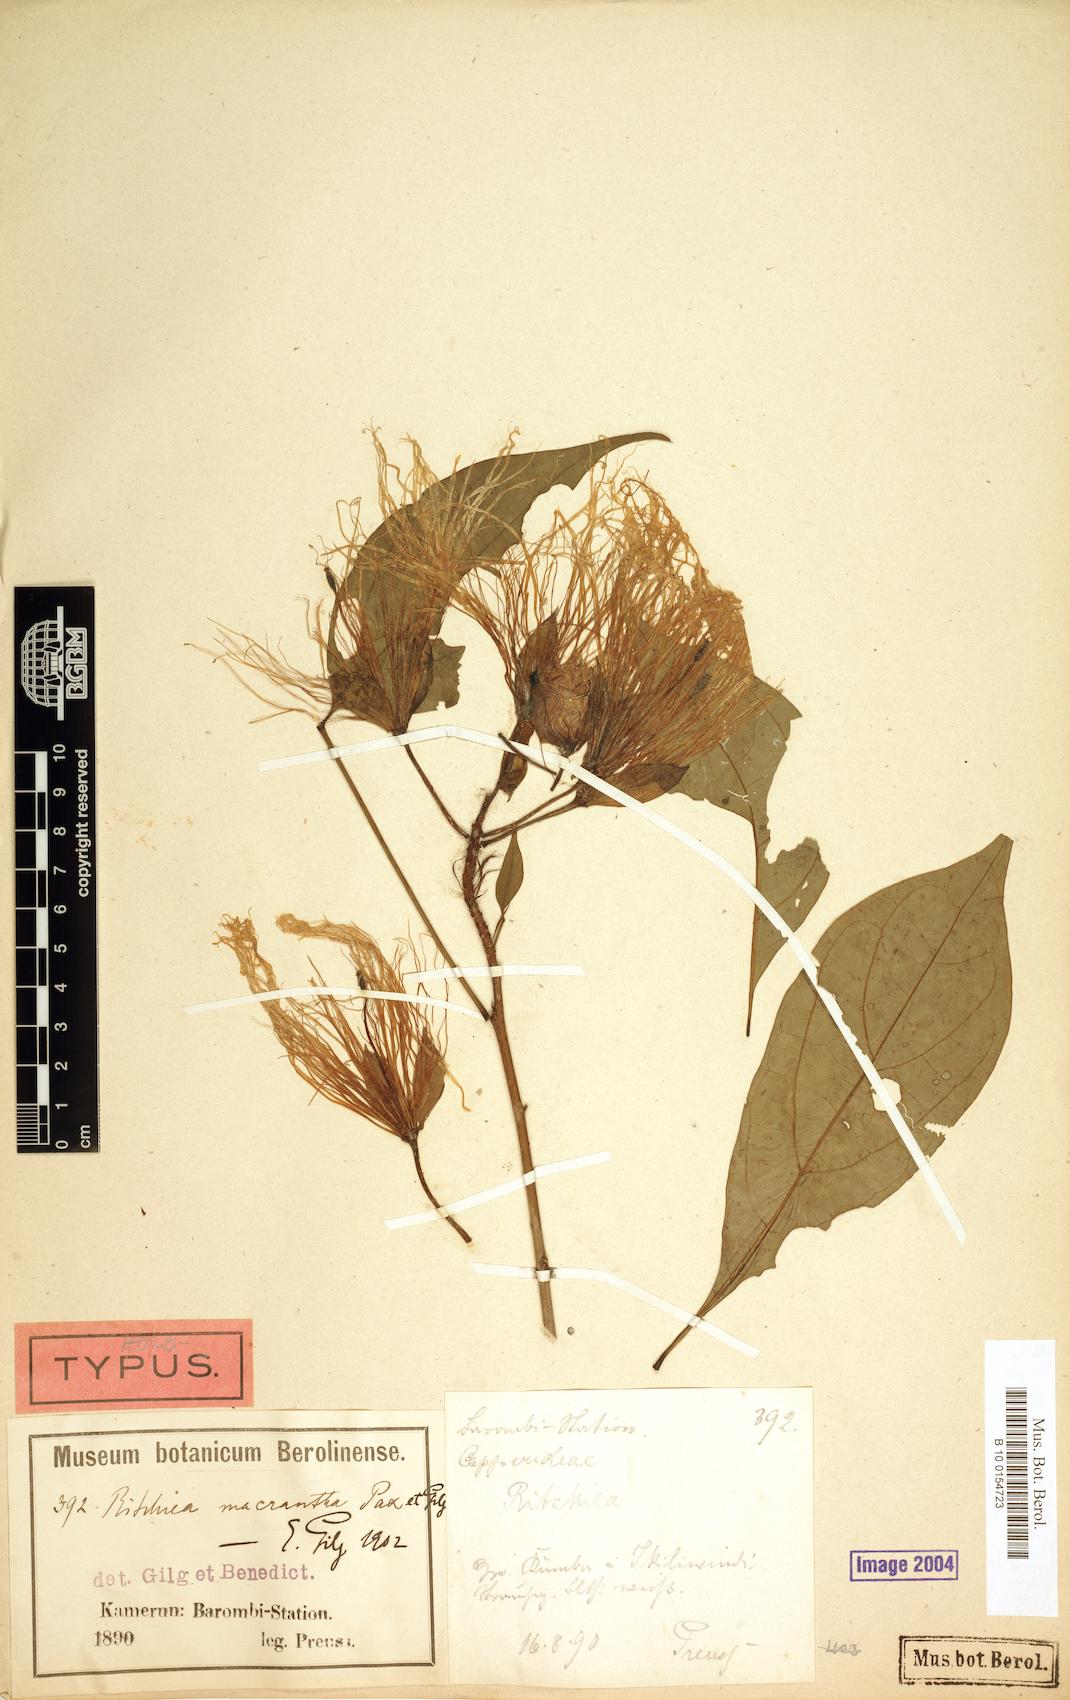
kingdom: Plantae
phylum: Tracheophyta
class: Magnoliopsida
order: Brassicales
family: Capparaceae
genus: Ritchiea
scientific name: Ritchiea macrantha
